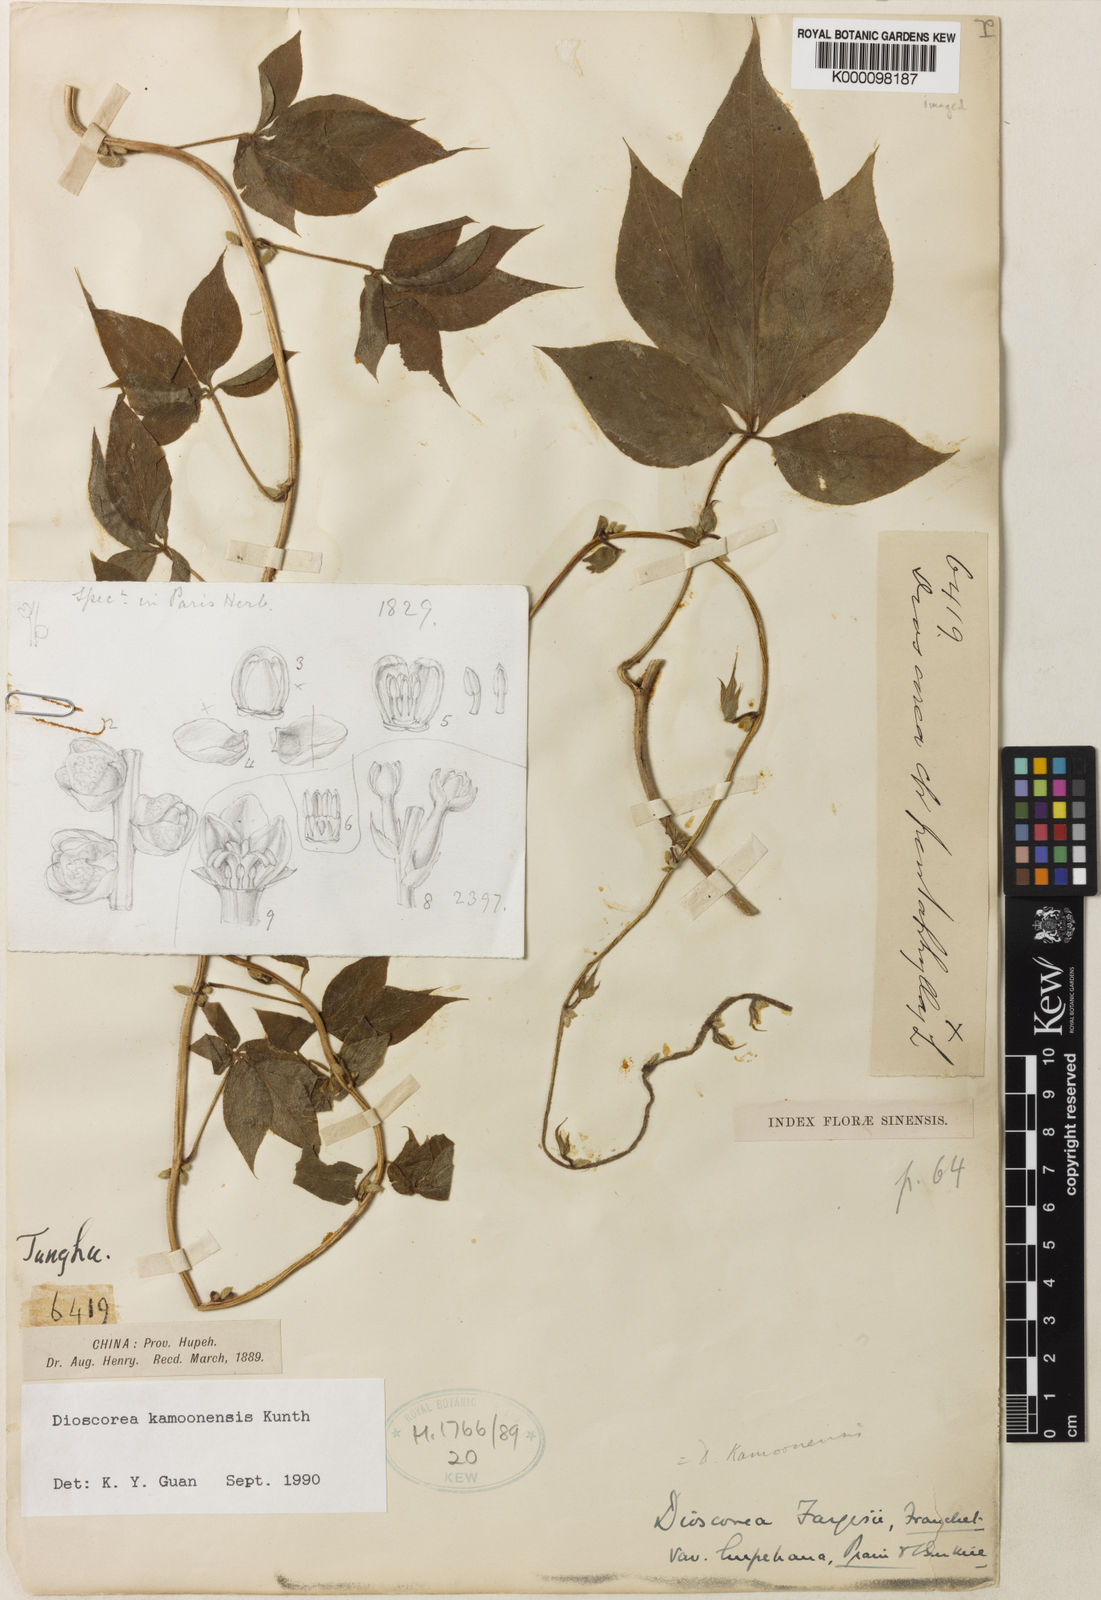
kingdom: Plantae
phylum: Tracheophyta
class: Liliopsida
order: Dioscoreales
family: Dioscoreaceae
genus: Dioscorea
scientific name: Dioscorea kamoonensis
